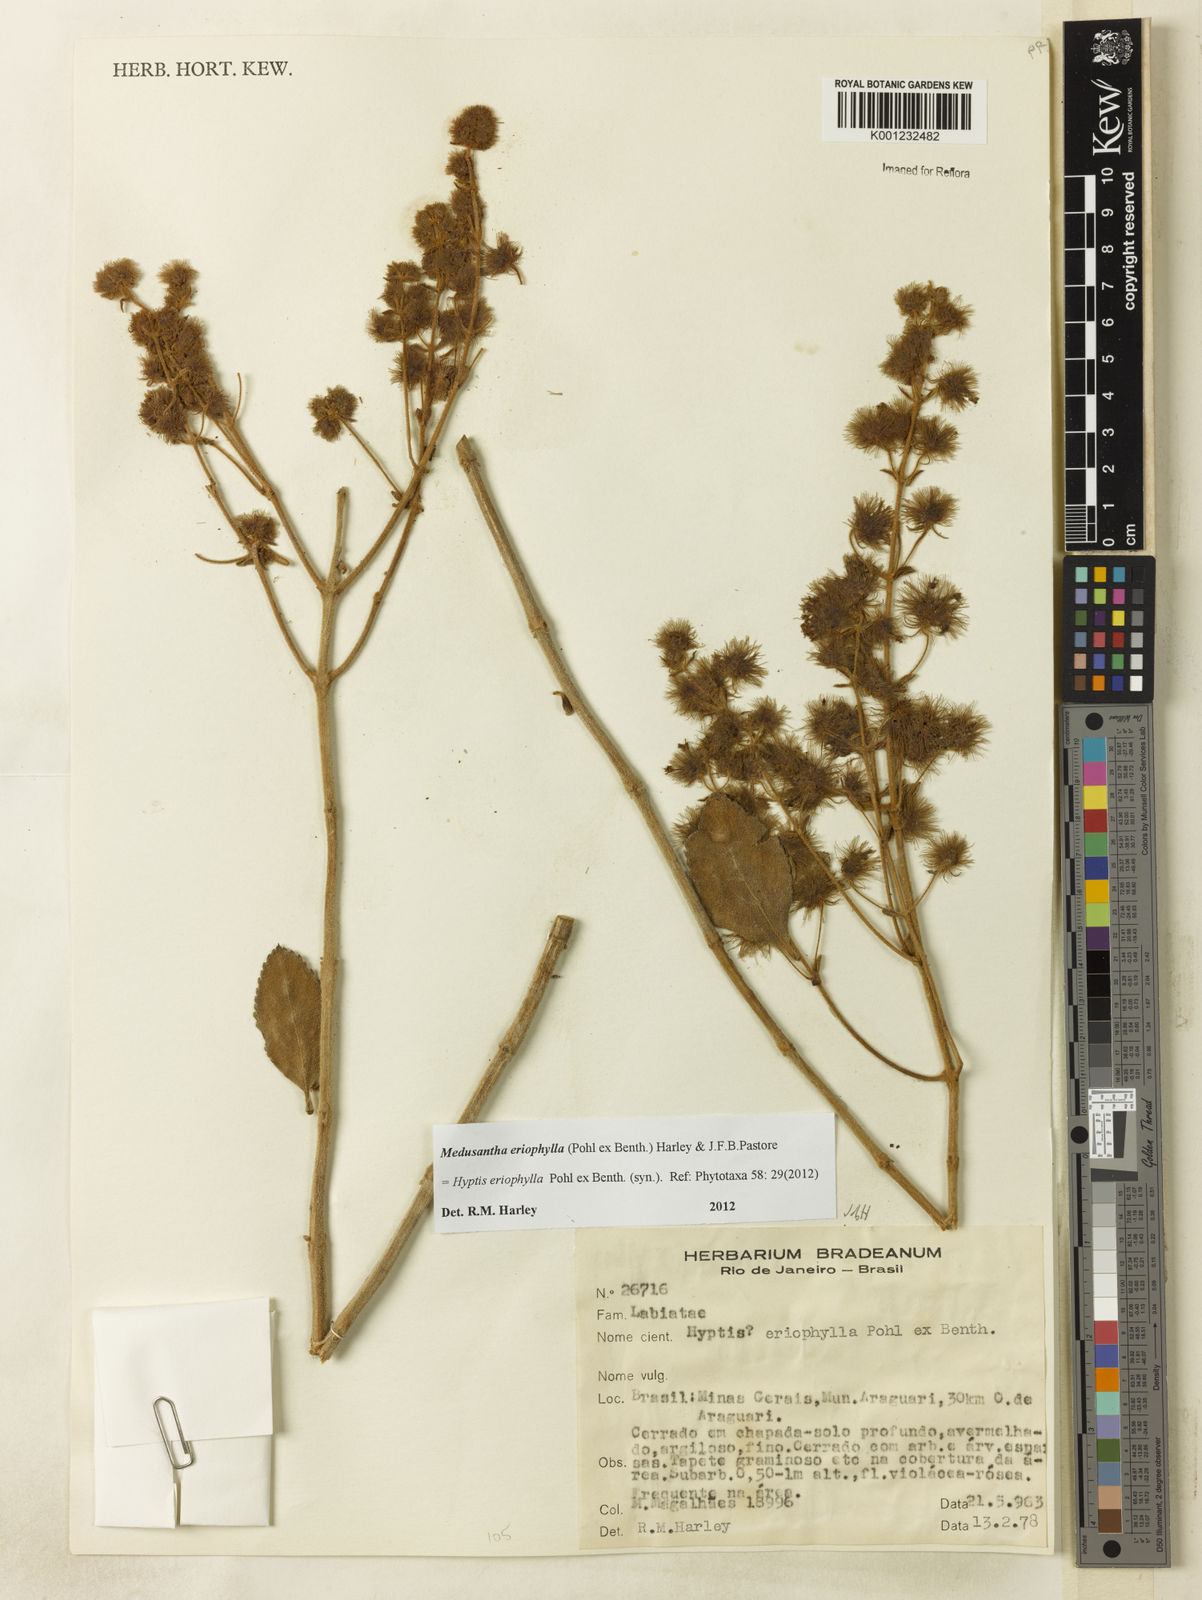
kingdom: Plantae
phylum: Tracheophyta
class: Magnoliopsida
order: Lamiales
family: Lamiaceae
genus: Medusantha
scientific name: Medusantha eriophylla
